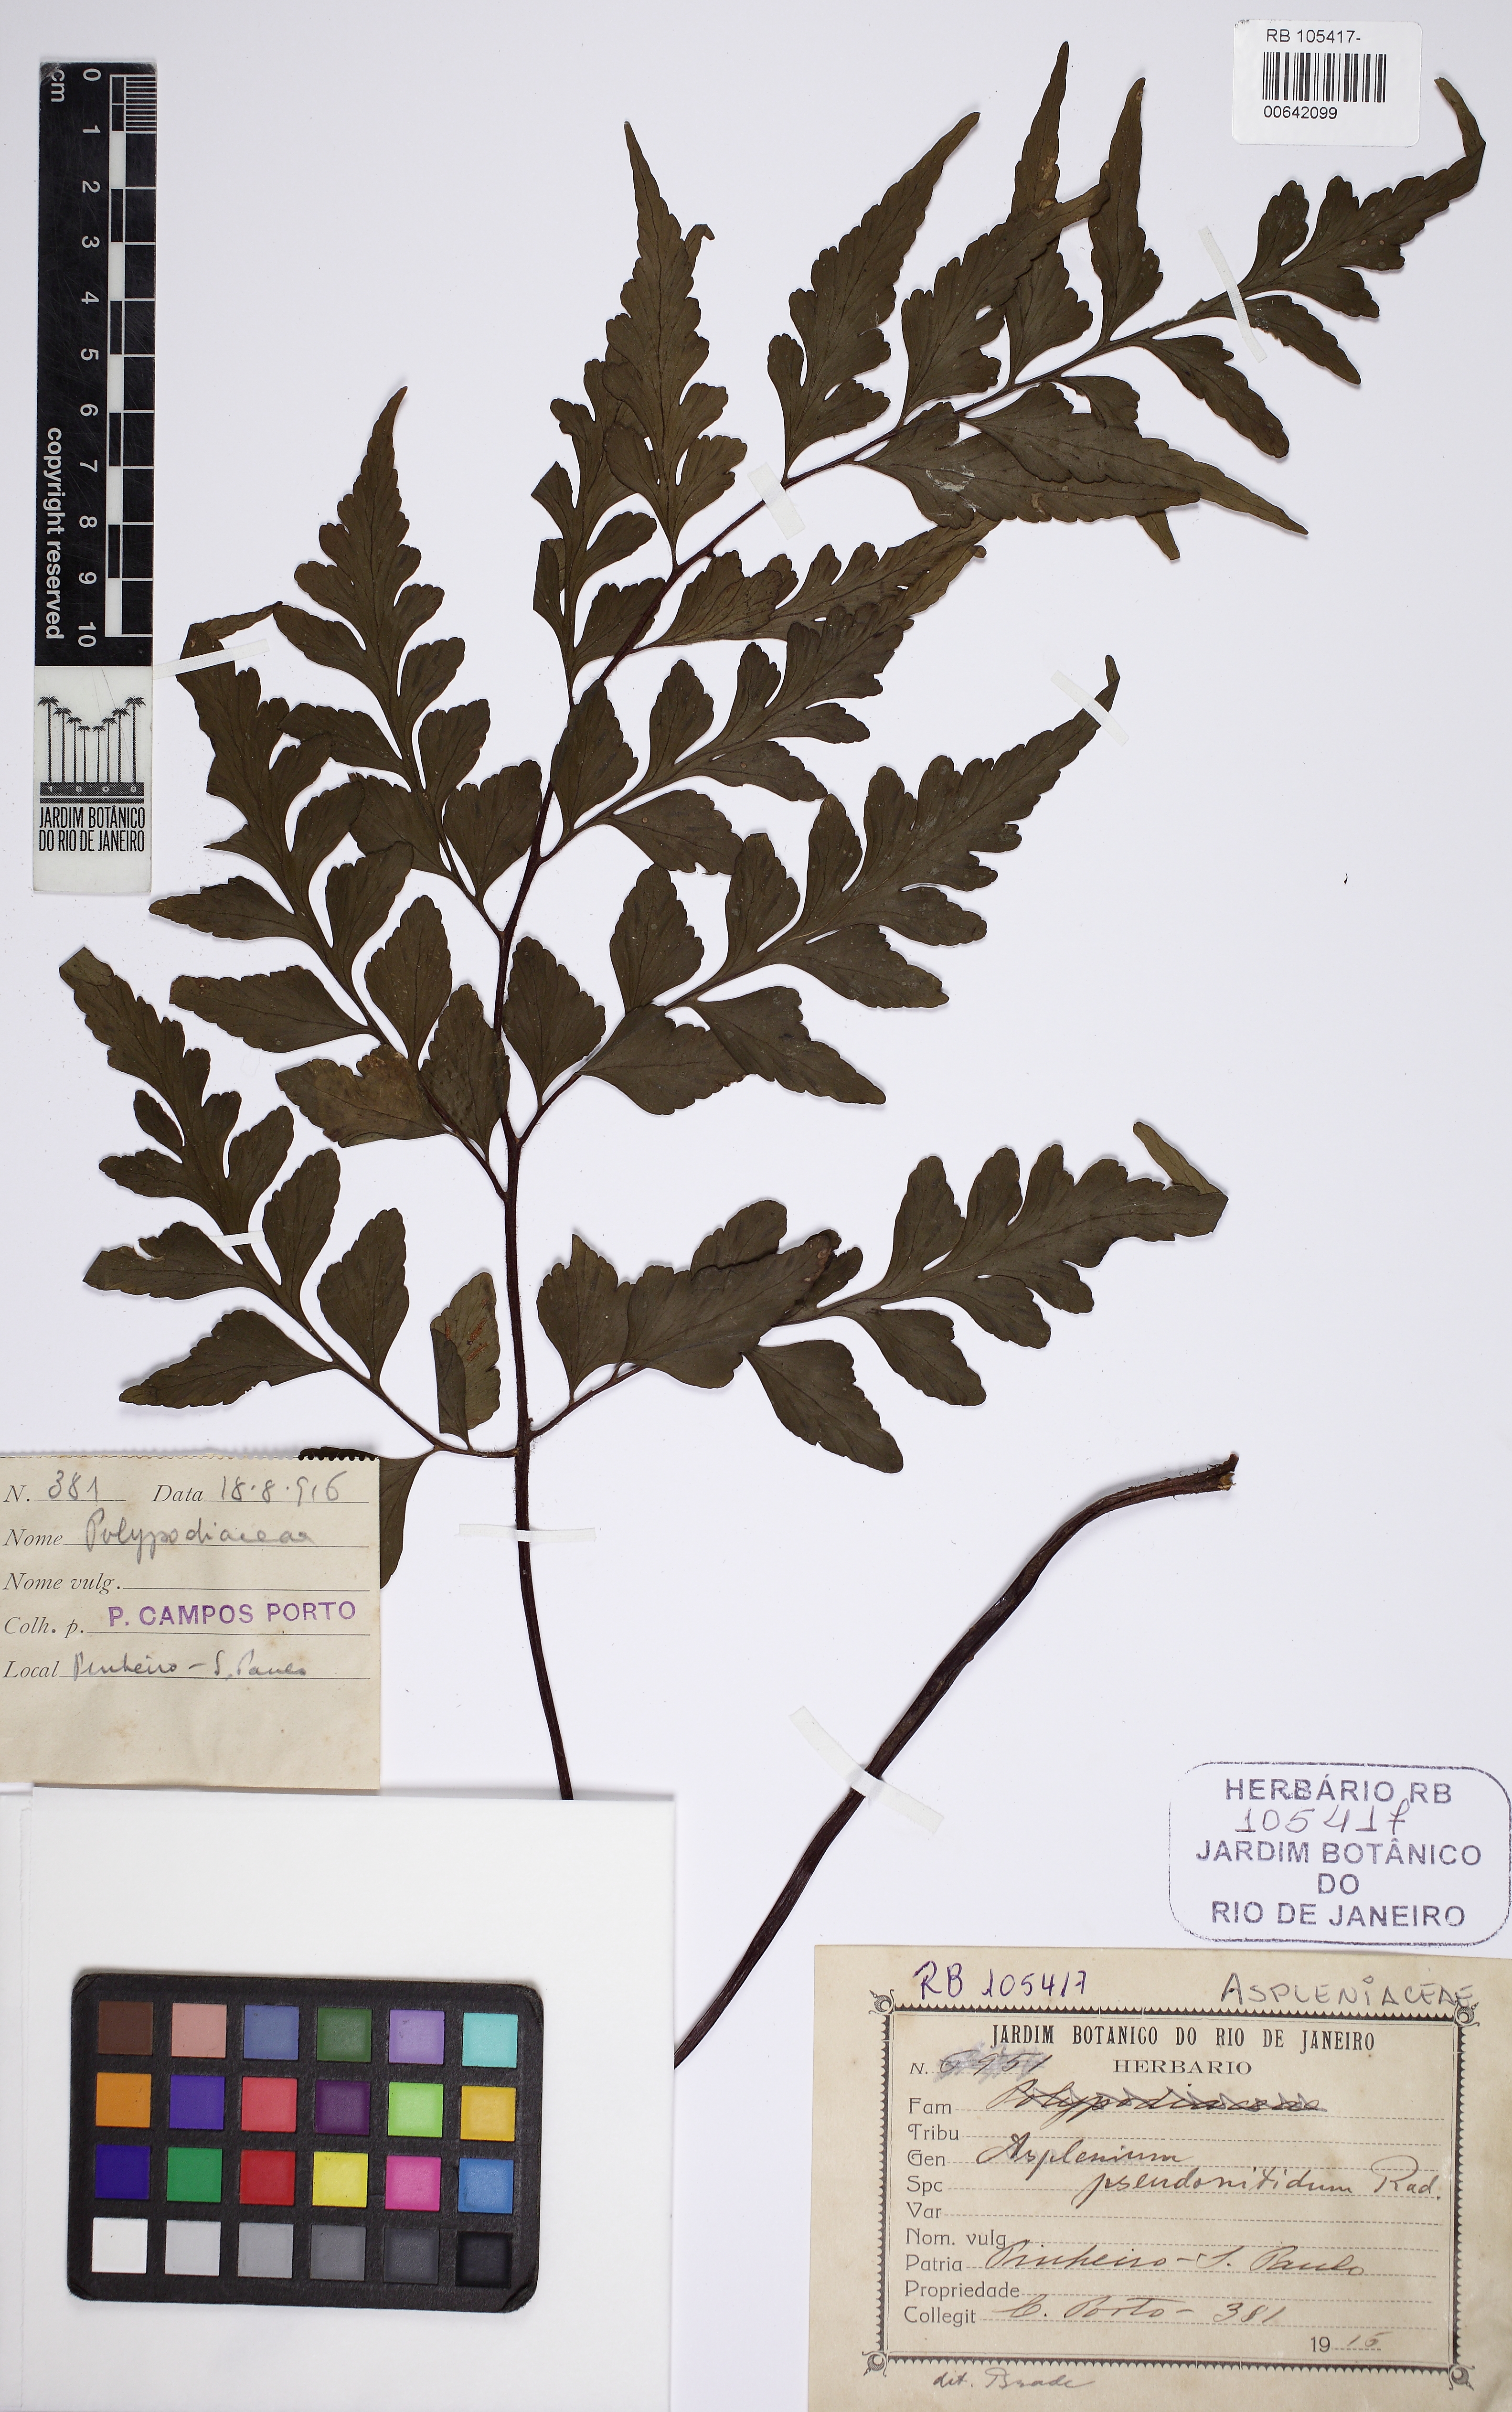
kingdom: Plantae
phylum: Tracheophyta
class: Polypodiopsida
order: Polypodiales
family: Aspleniaceae
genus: Asplenium
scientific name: Asplenium pseudonitidum
